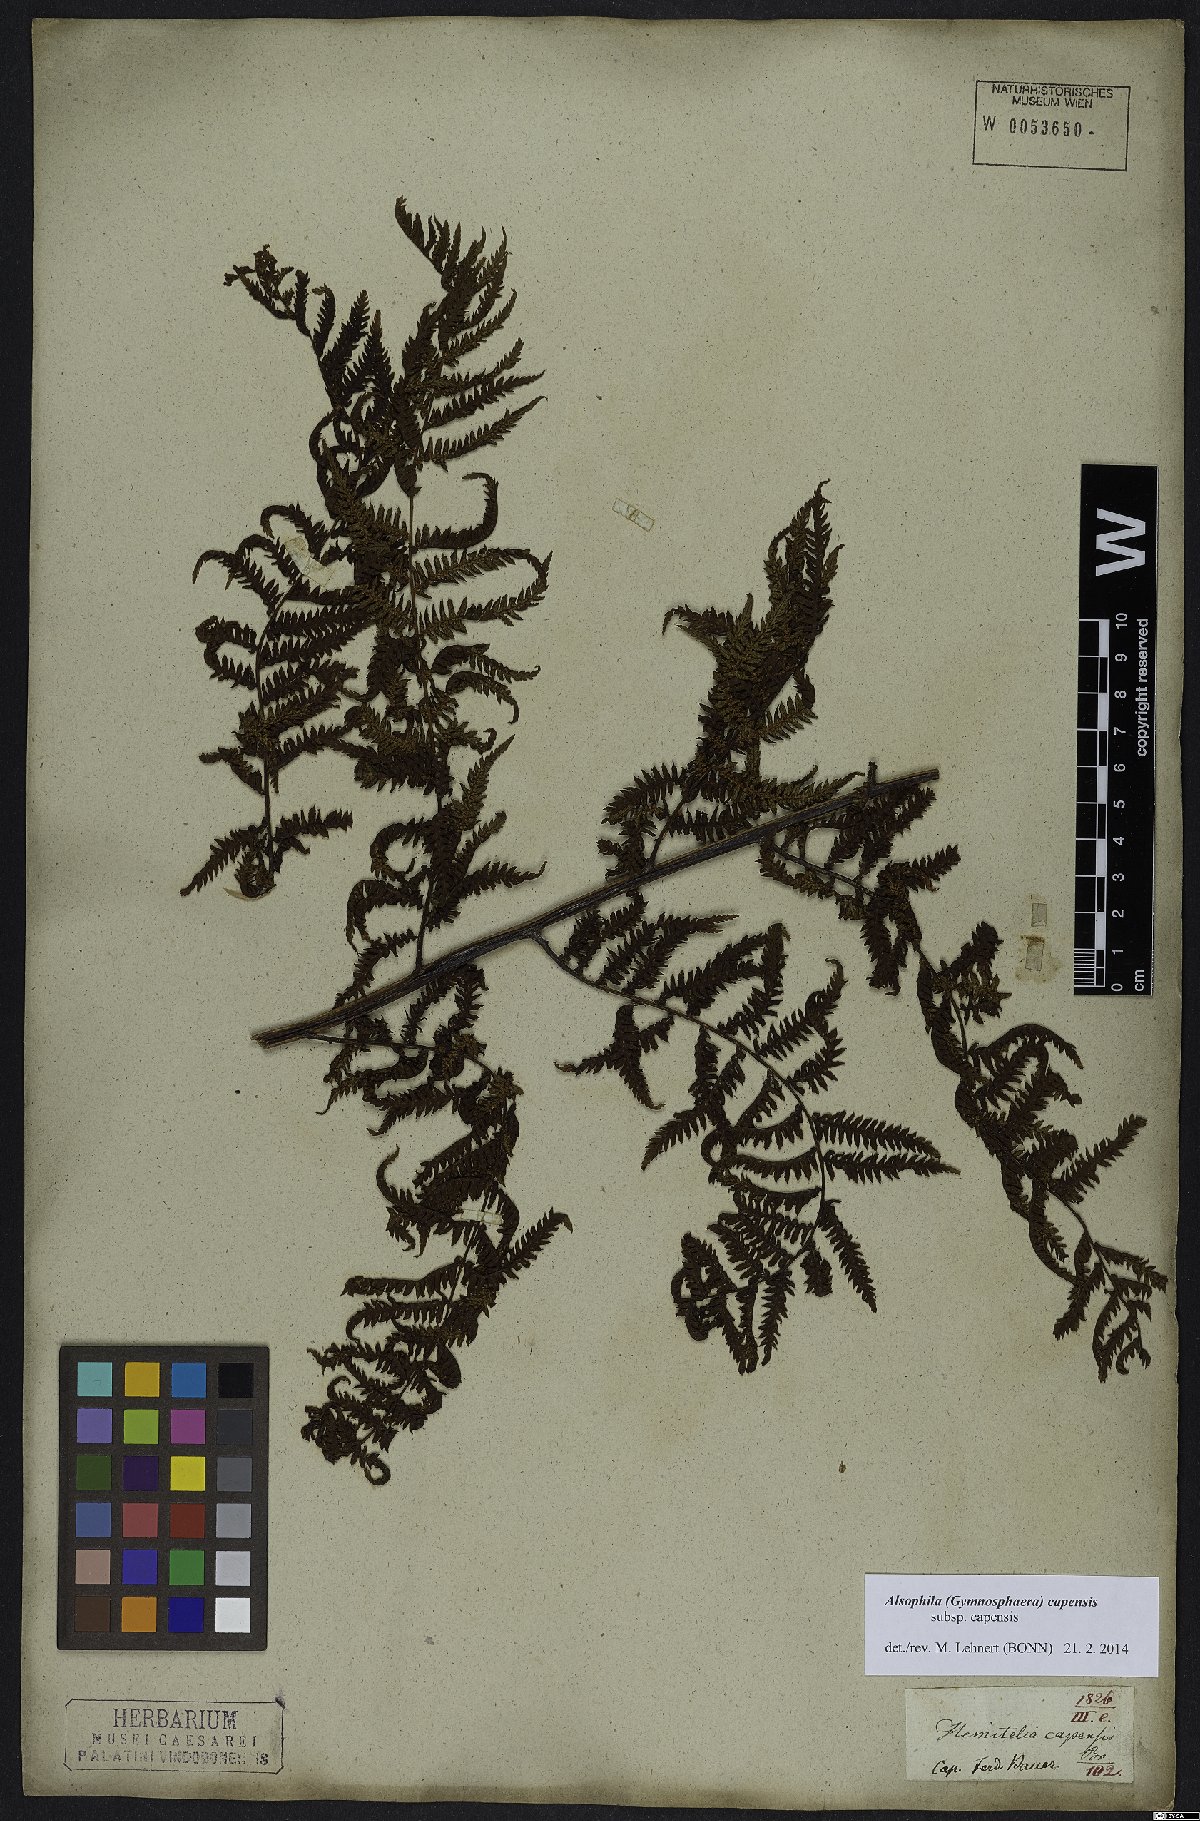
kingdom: Plantae
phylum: Tracheophyta
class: Polypodiopsida
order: Cyatheales
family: Cyatheaceae
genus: Gymnosphaera
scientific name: Gymnosphaera capensis
